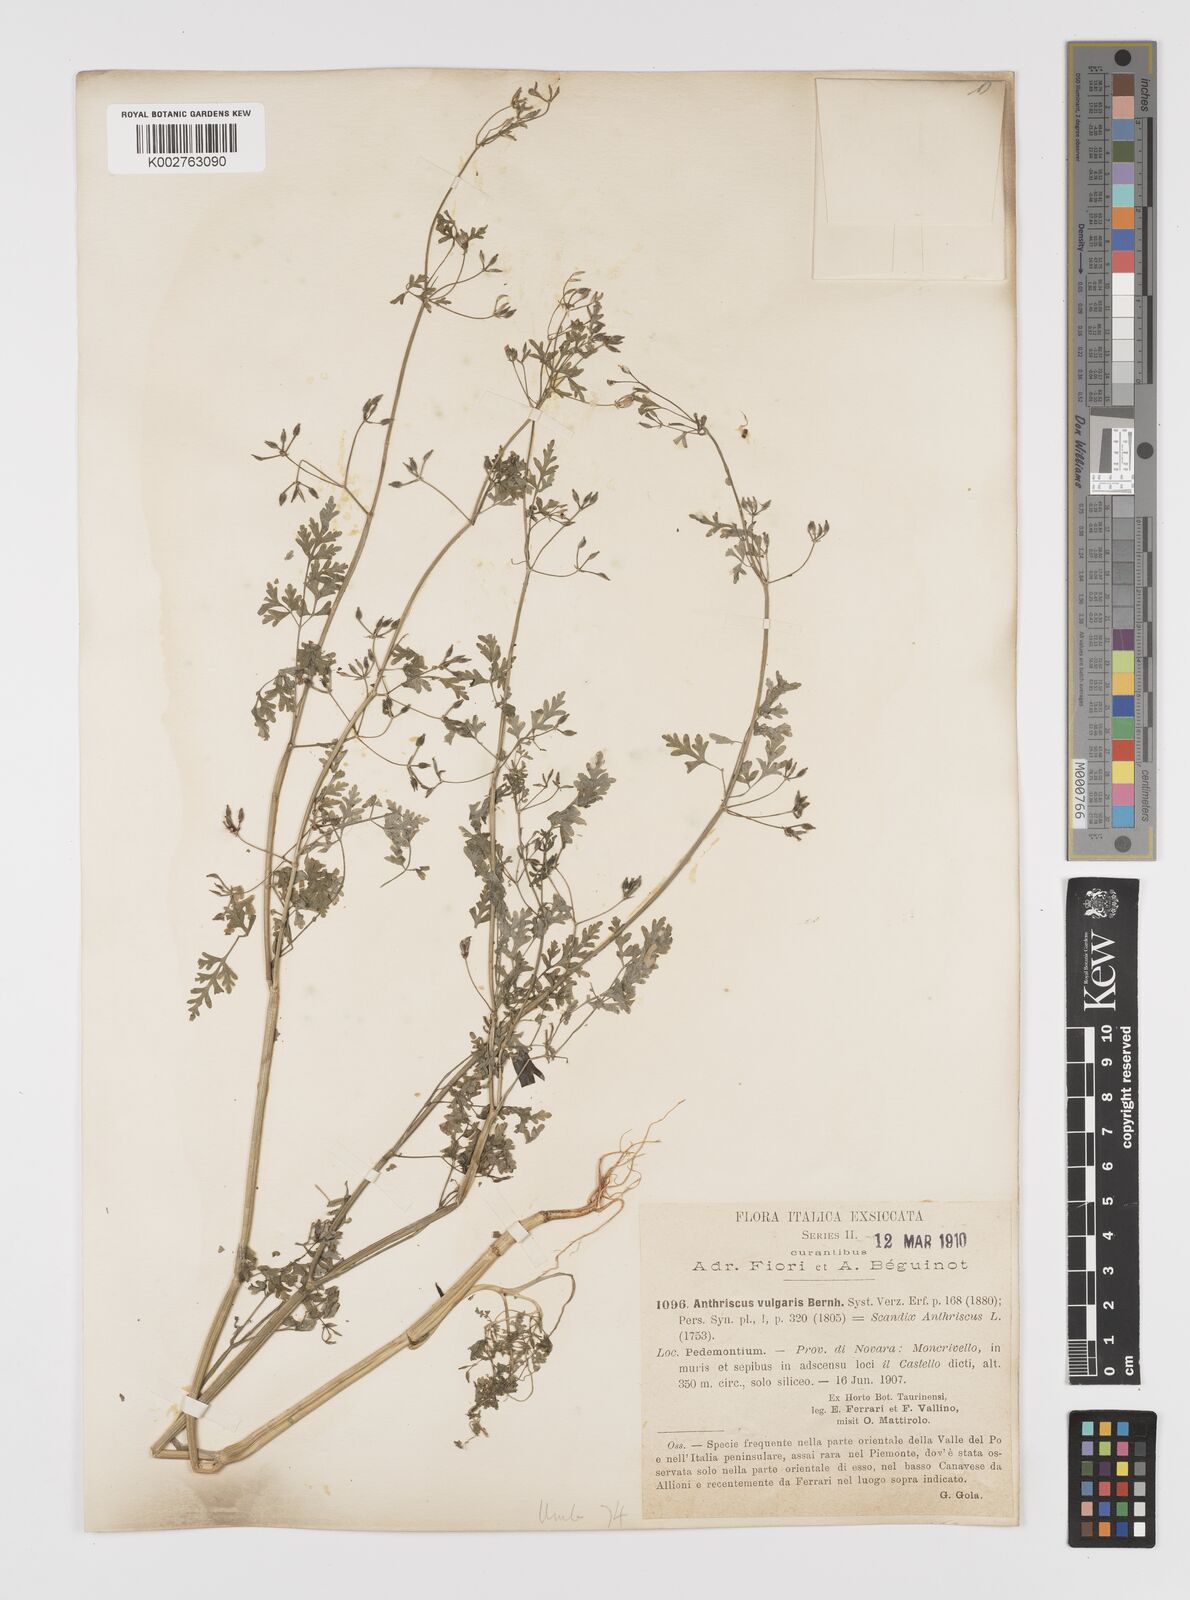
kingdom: Plantae
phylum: Tracheophyta
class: Magnoliopsida
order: Apiales
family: Apiaceae
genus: Anthriscus
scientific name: Anthriscus caucalis
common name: Bur chervil
